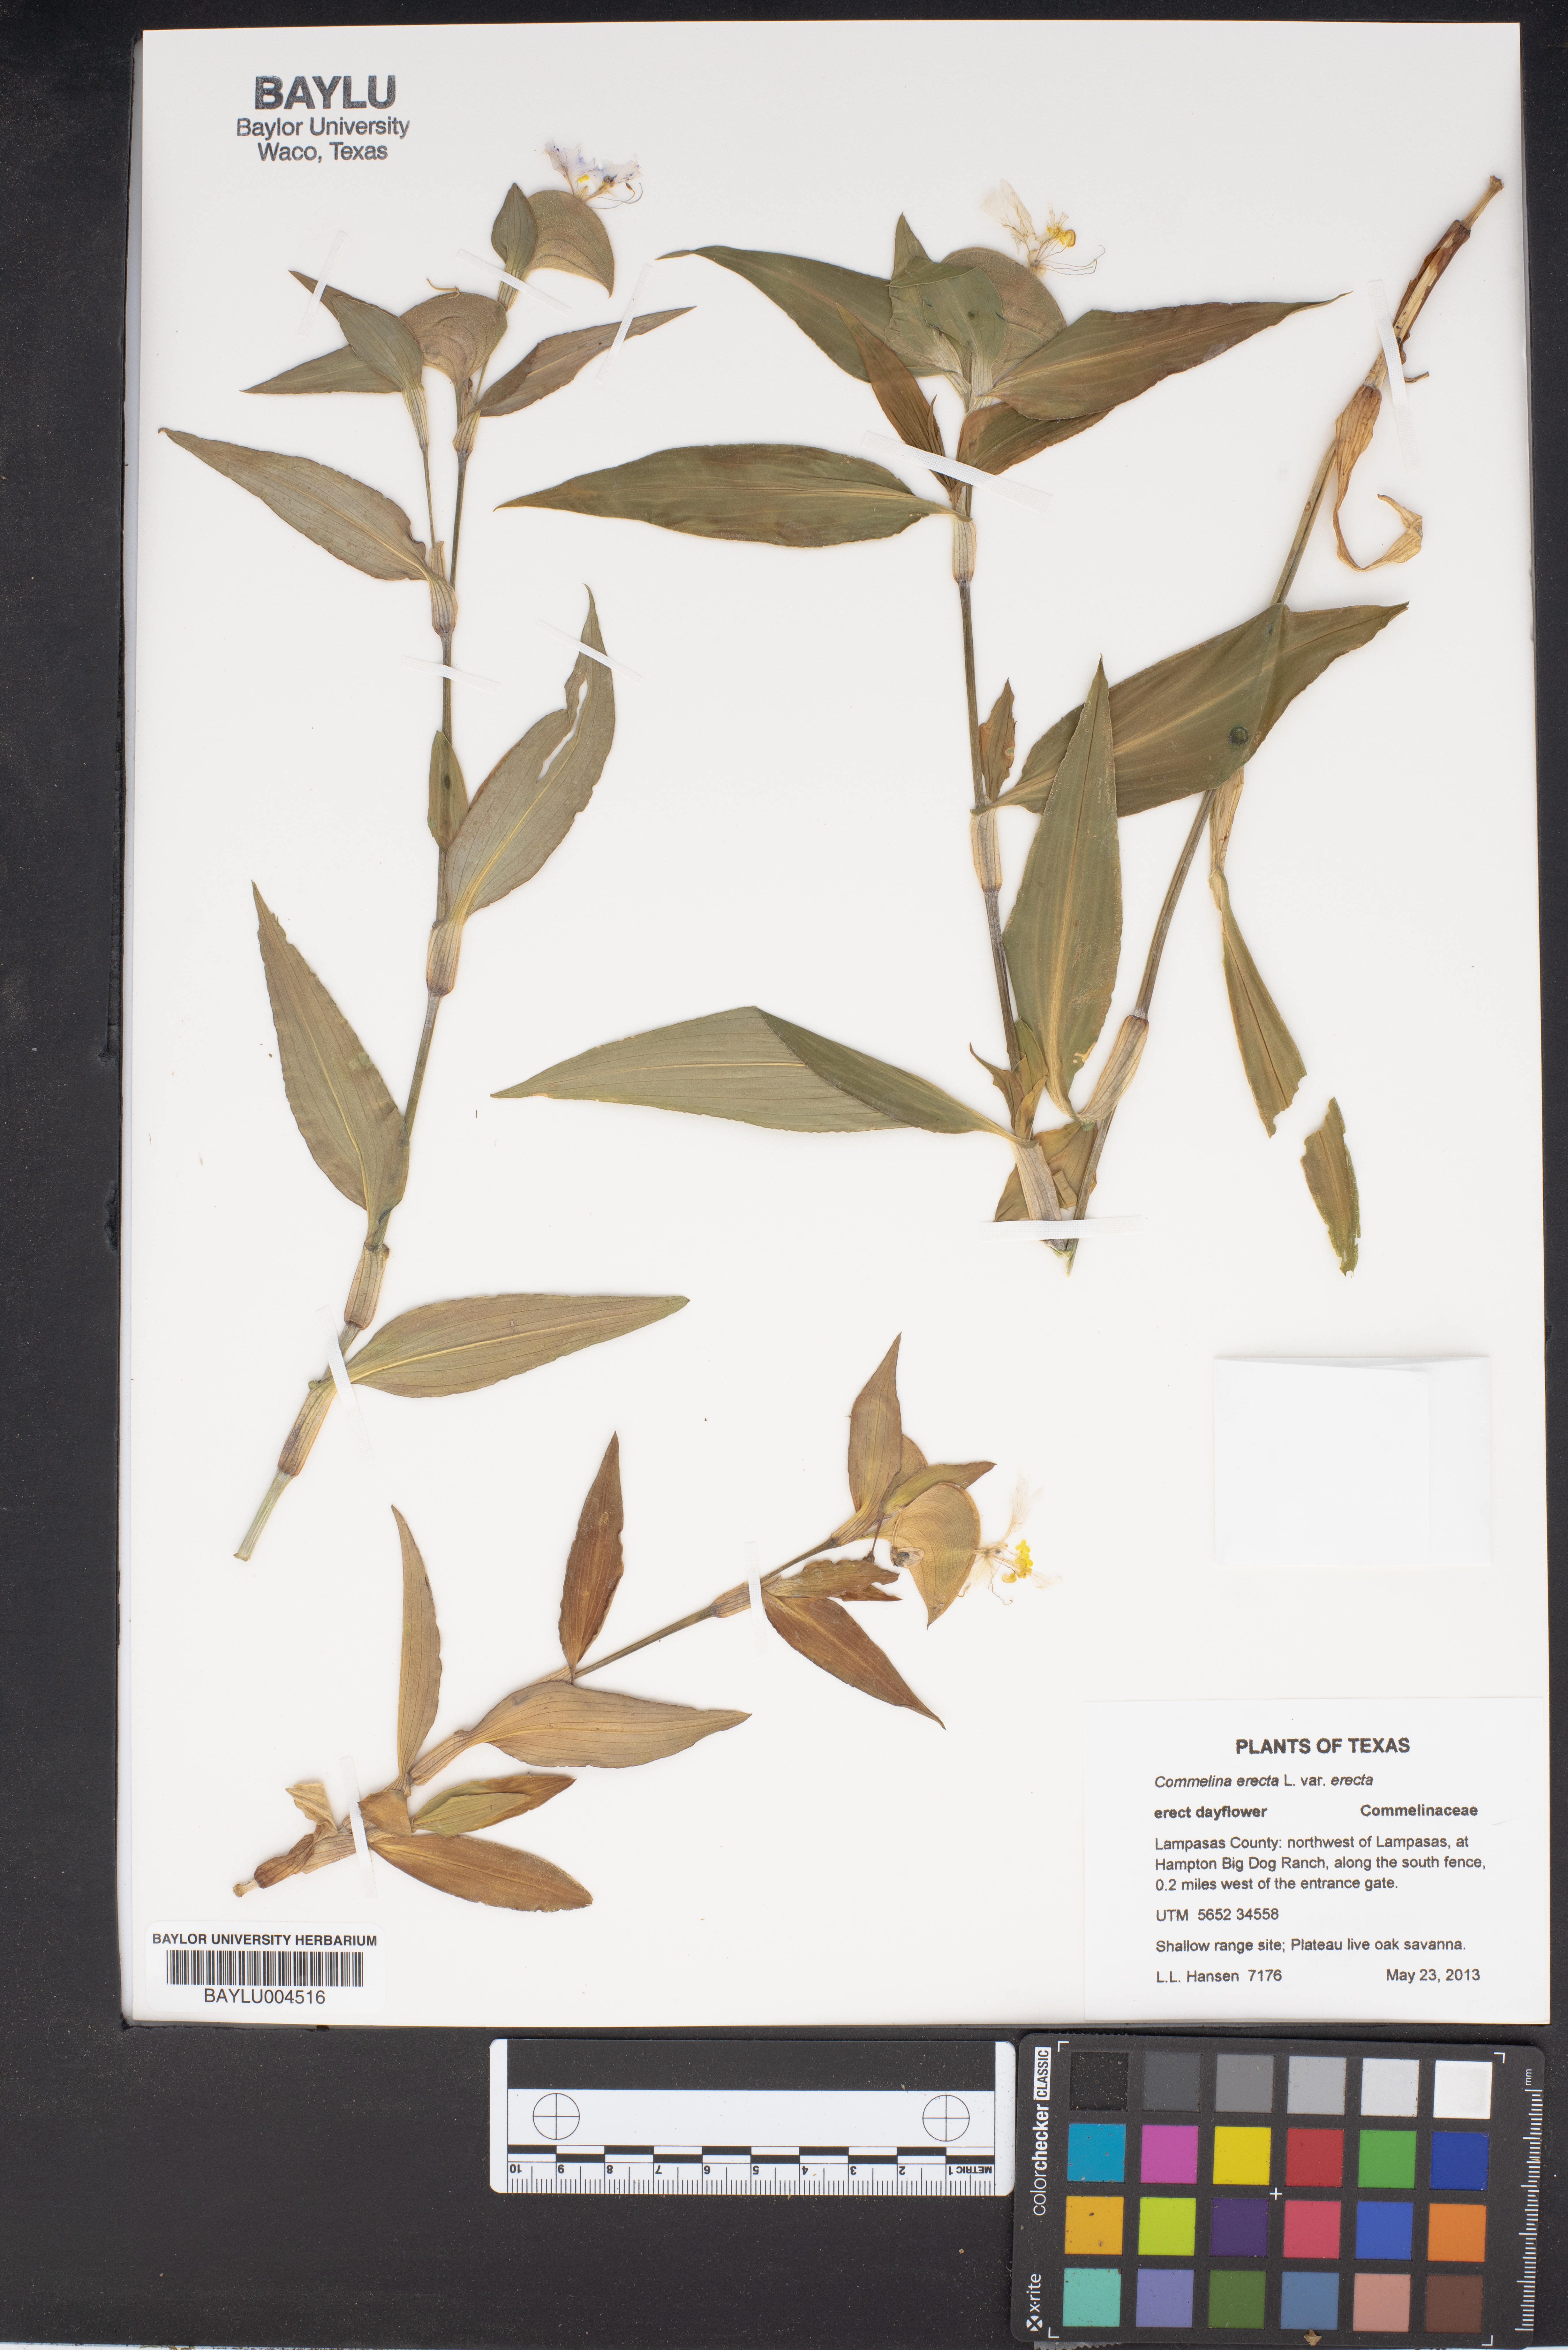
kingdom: Plantae
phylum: Tracheophyta
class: Liliopsida
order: Commelinales
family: Commelinaceae
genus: Commelina
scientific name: Commelina erecta
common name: Blousel blommetjie
